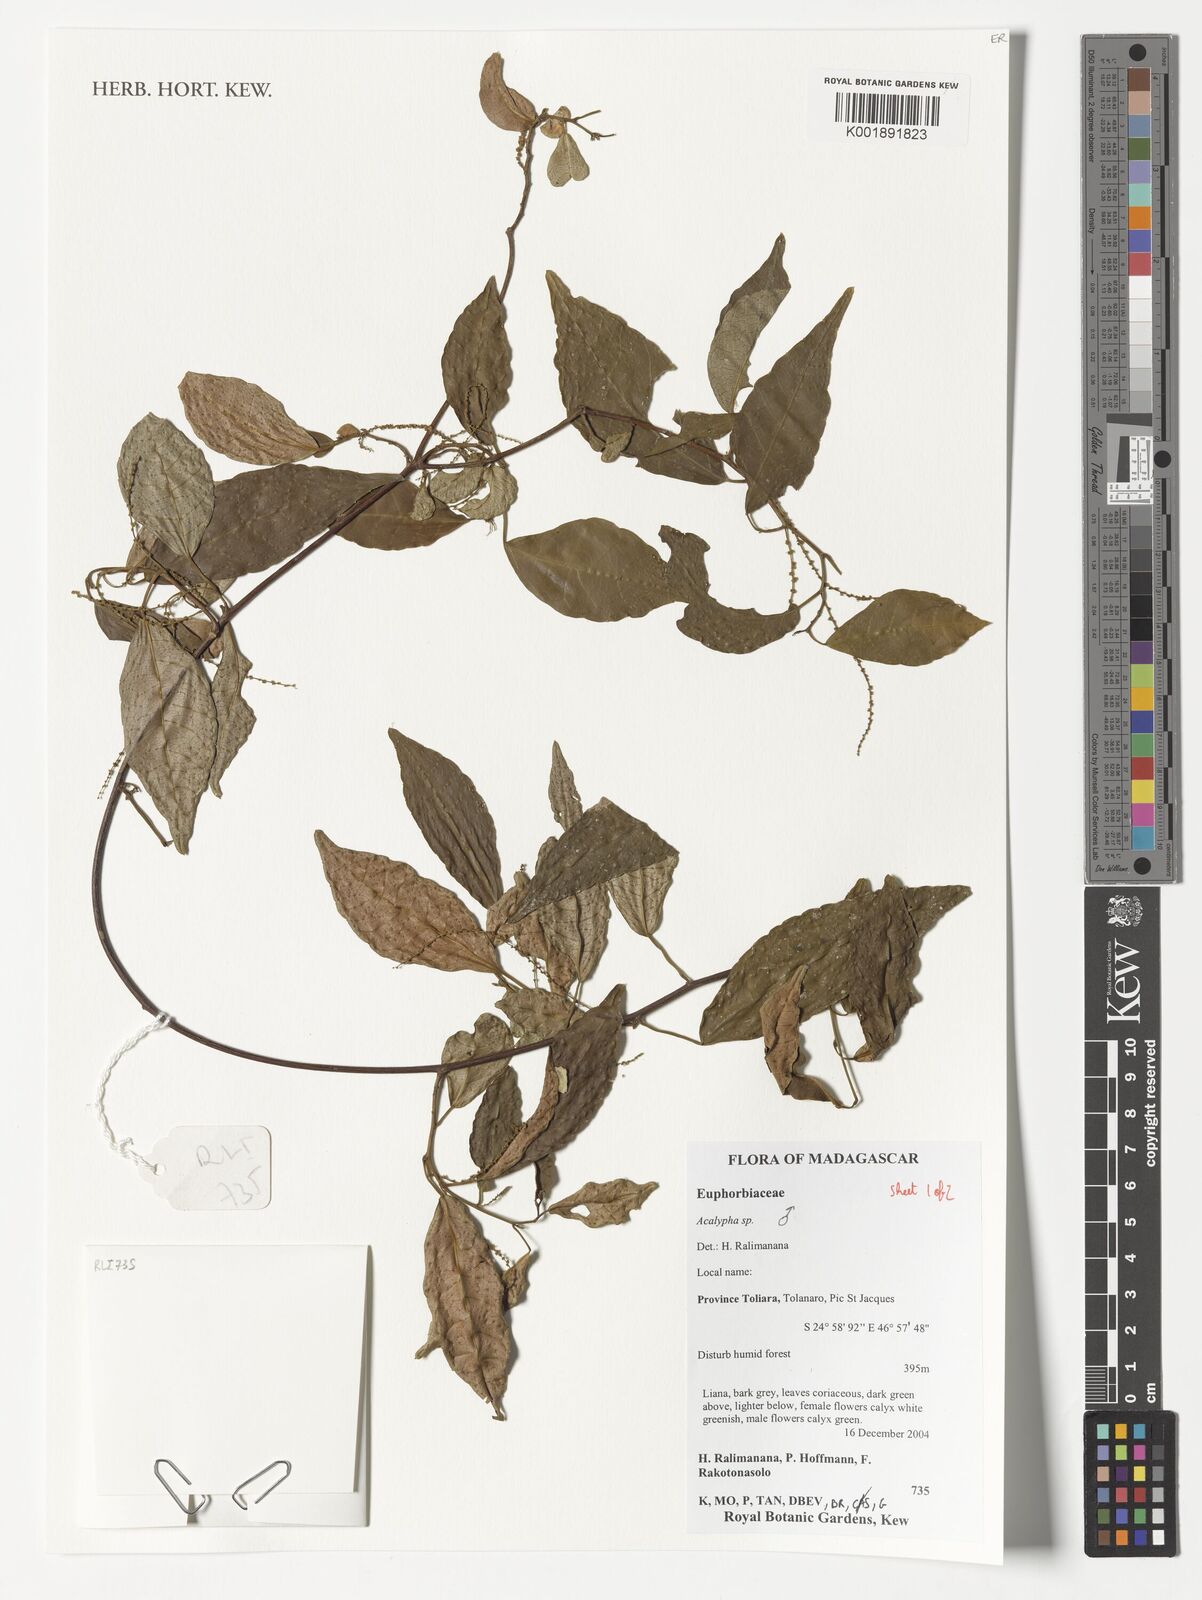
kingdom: Plantae
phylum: Tracheophyta
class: Magnoliopsida
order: Malpighiales
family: Euphorbiaceae
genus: Acalypha
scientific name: Acalypha
